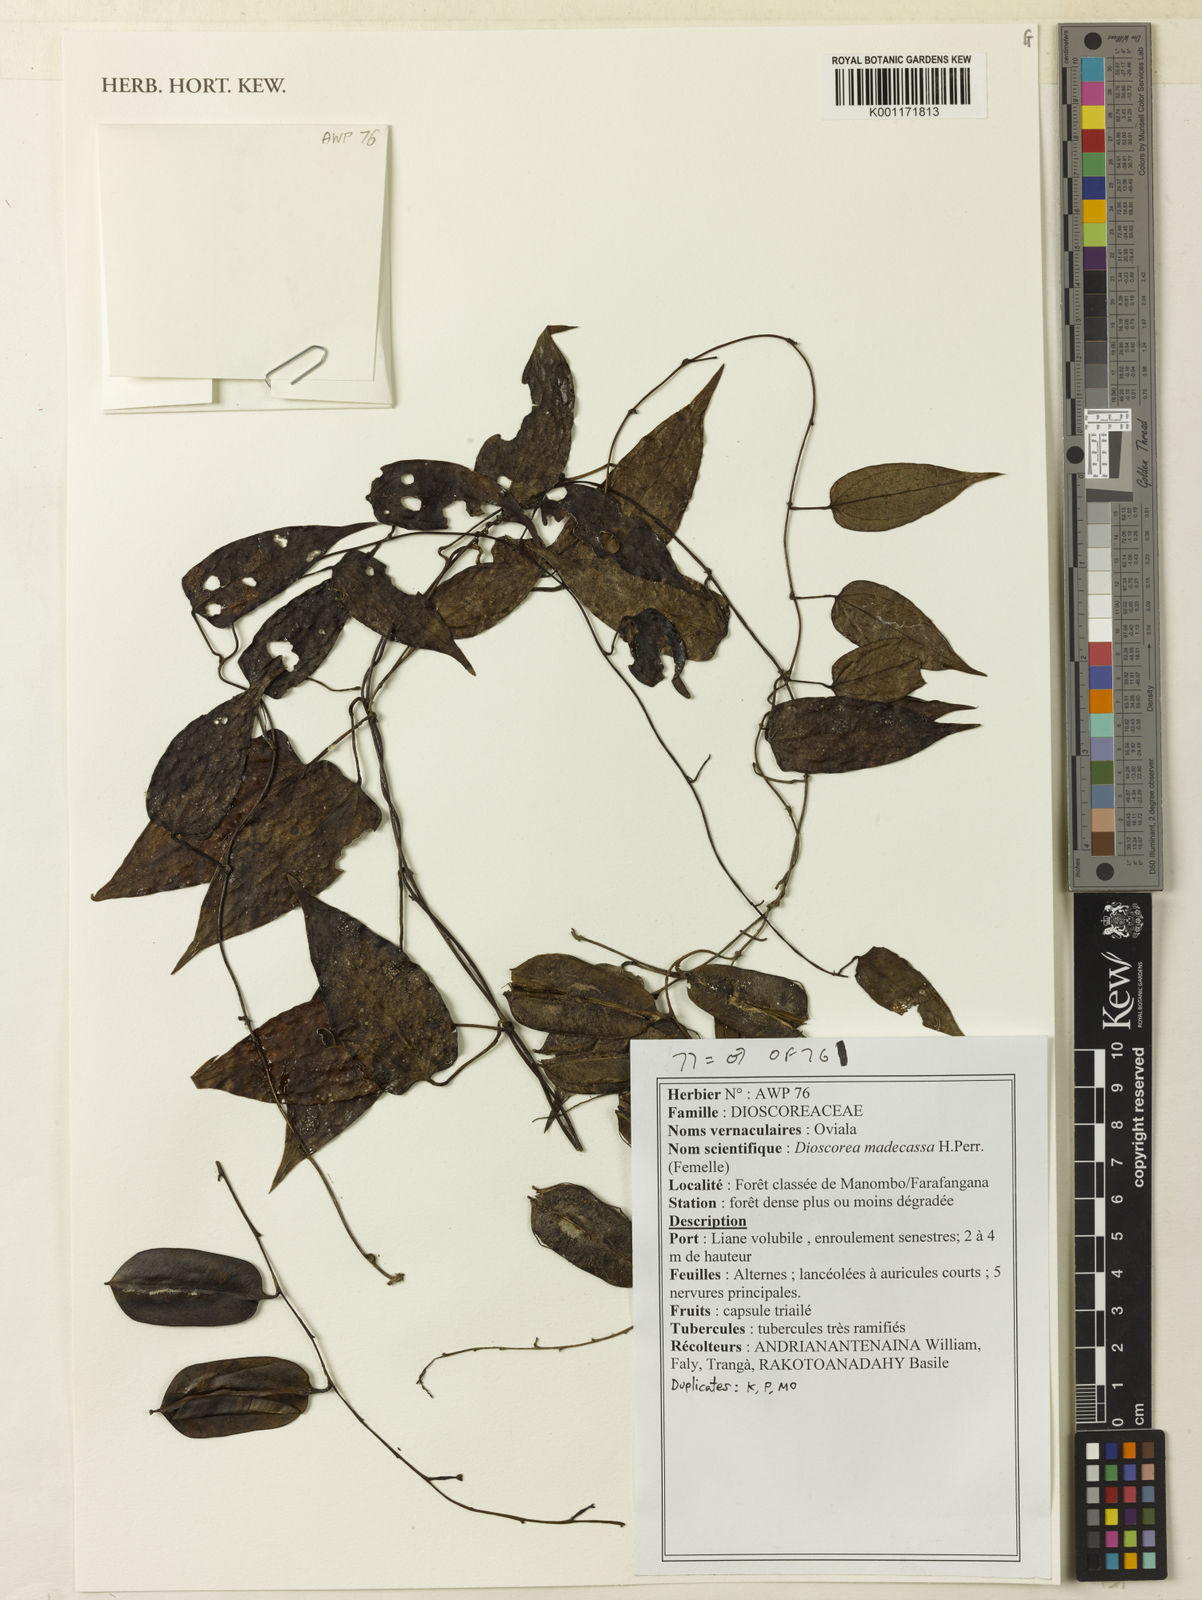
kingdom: Plantae
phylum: Tracheophyta
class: Liliopsida
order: Dioscoreales
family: Dioscoreaceae
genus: Dioscorea
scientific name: Dioscorea madecassa
